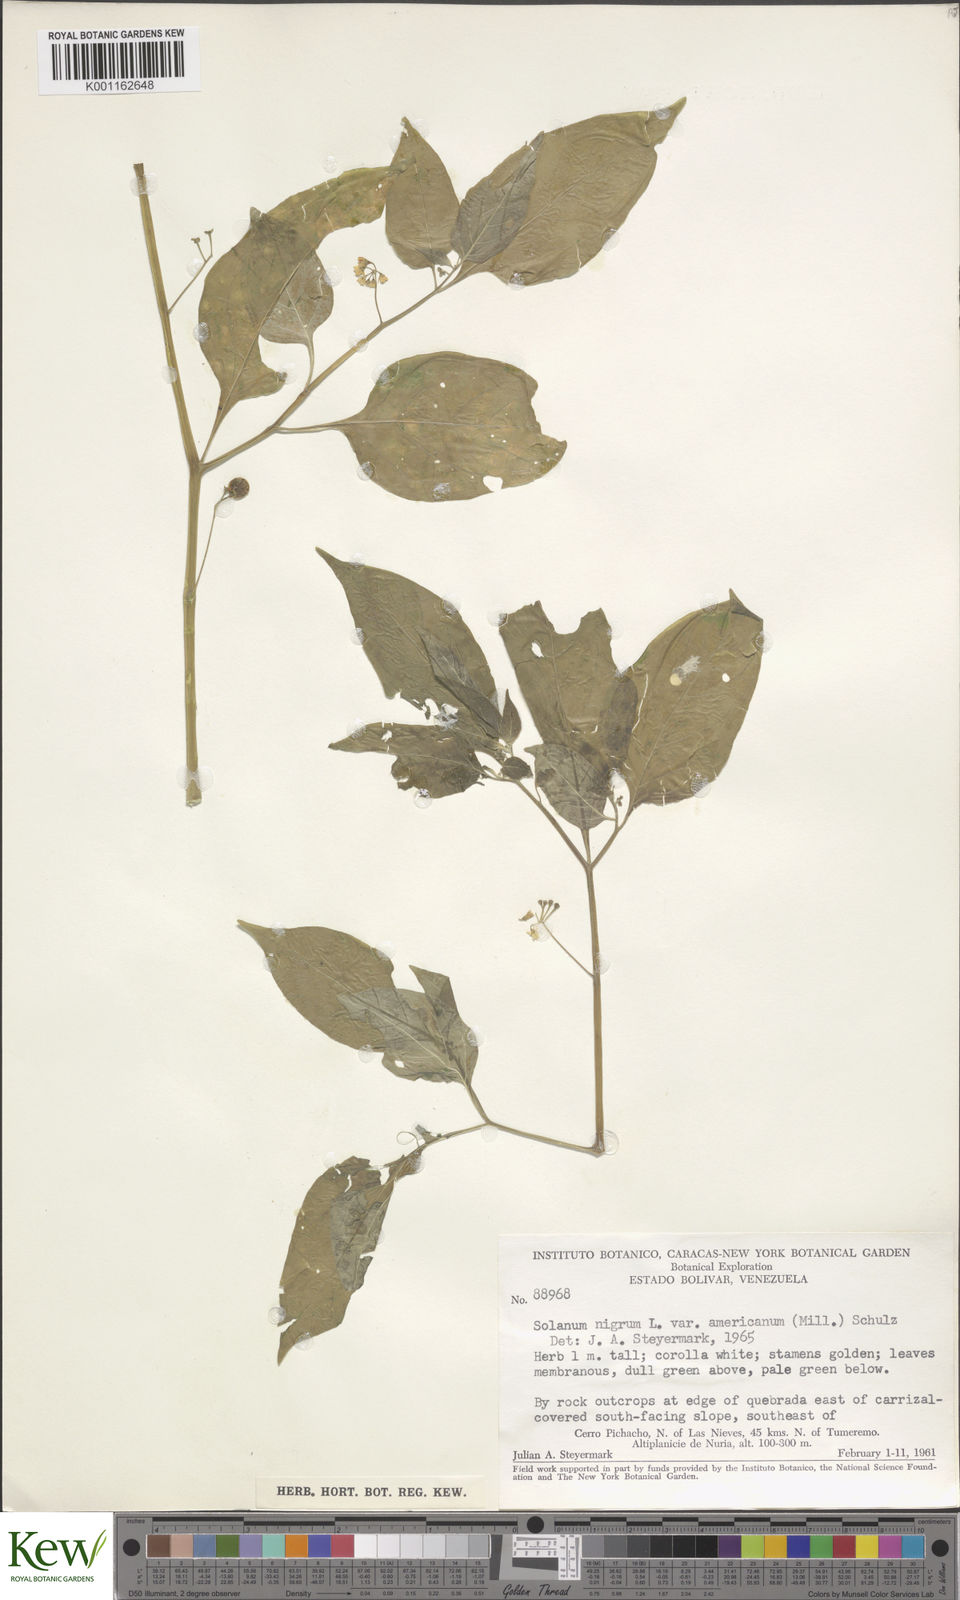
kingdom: Plantae
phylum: Tracheophyta
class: Magnoliopsida
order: Solanales
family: Solanaceae
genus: Solanum
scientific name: Solanum americanum
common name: American black nightshade
